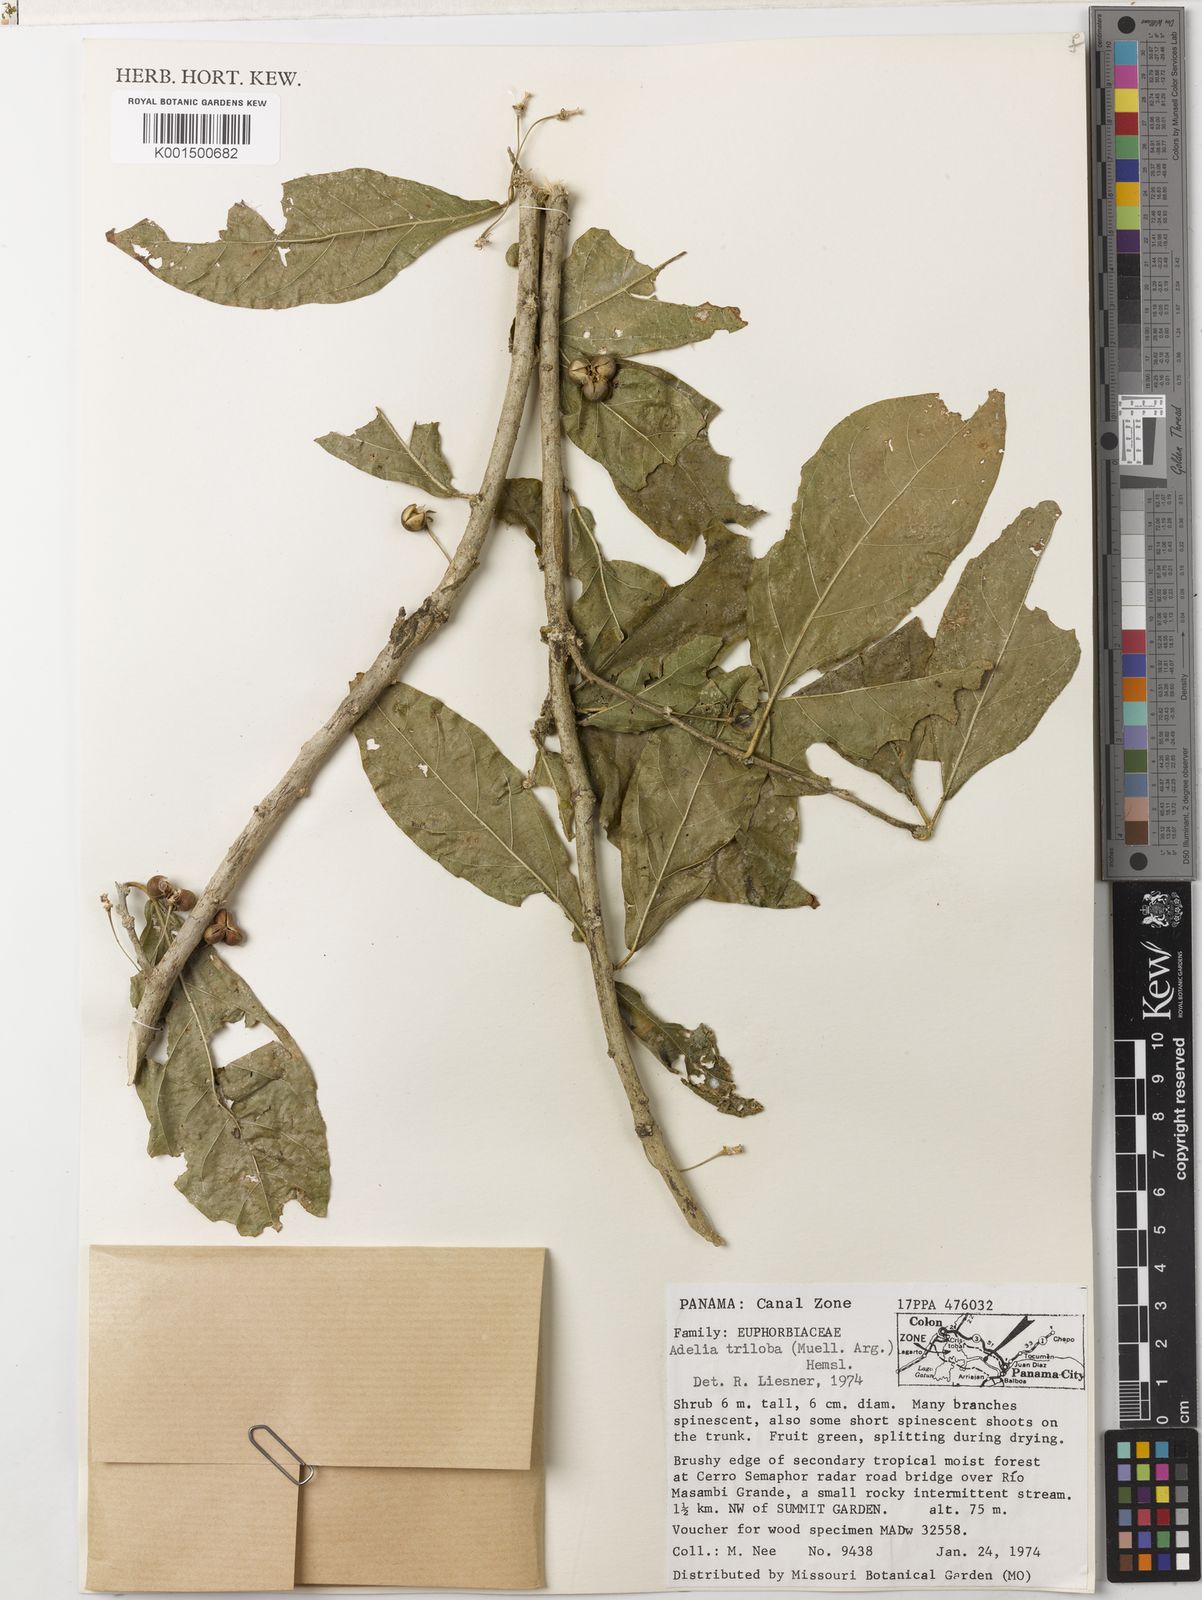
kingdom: Plantae
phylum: Tracheophyta
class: Magnoliopsida
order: Malpighiales
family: Euphorbiaceae
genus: Adelia
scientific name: Adelia triloba
